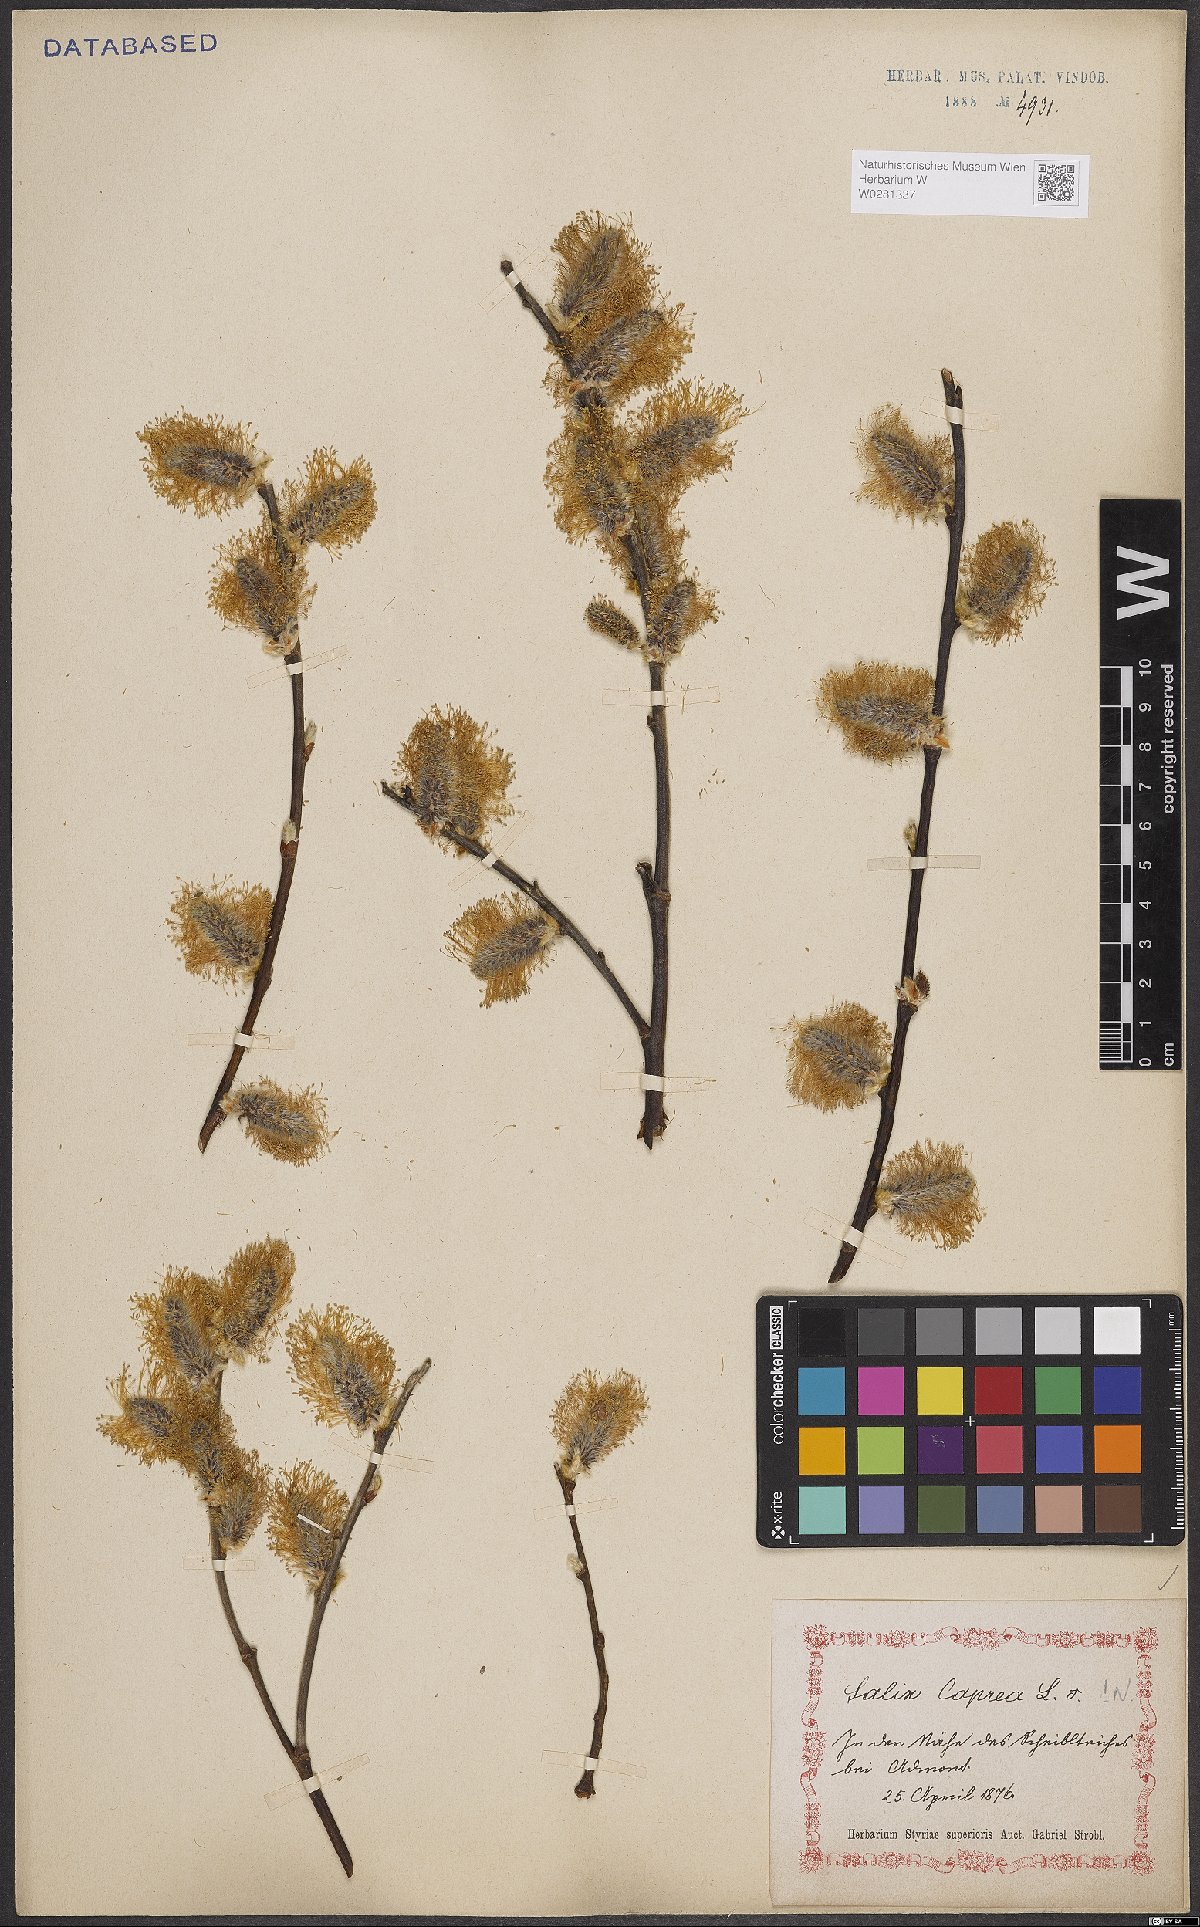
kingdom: Plantae
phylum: Tracheophyta
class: Magnoliopsida
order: Malpighiales
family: Salicaceae
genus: Salix
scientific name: Salix caprea
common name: Goat willow
